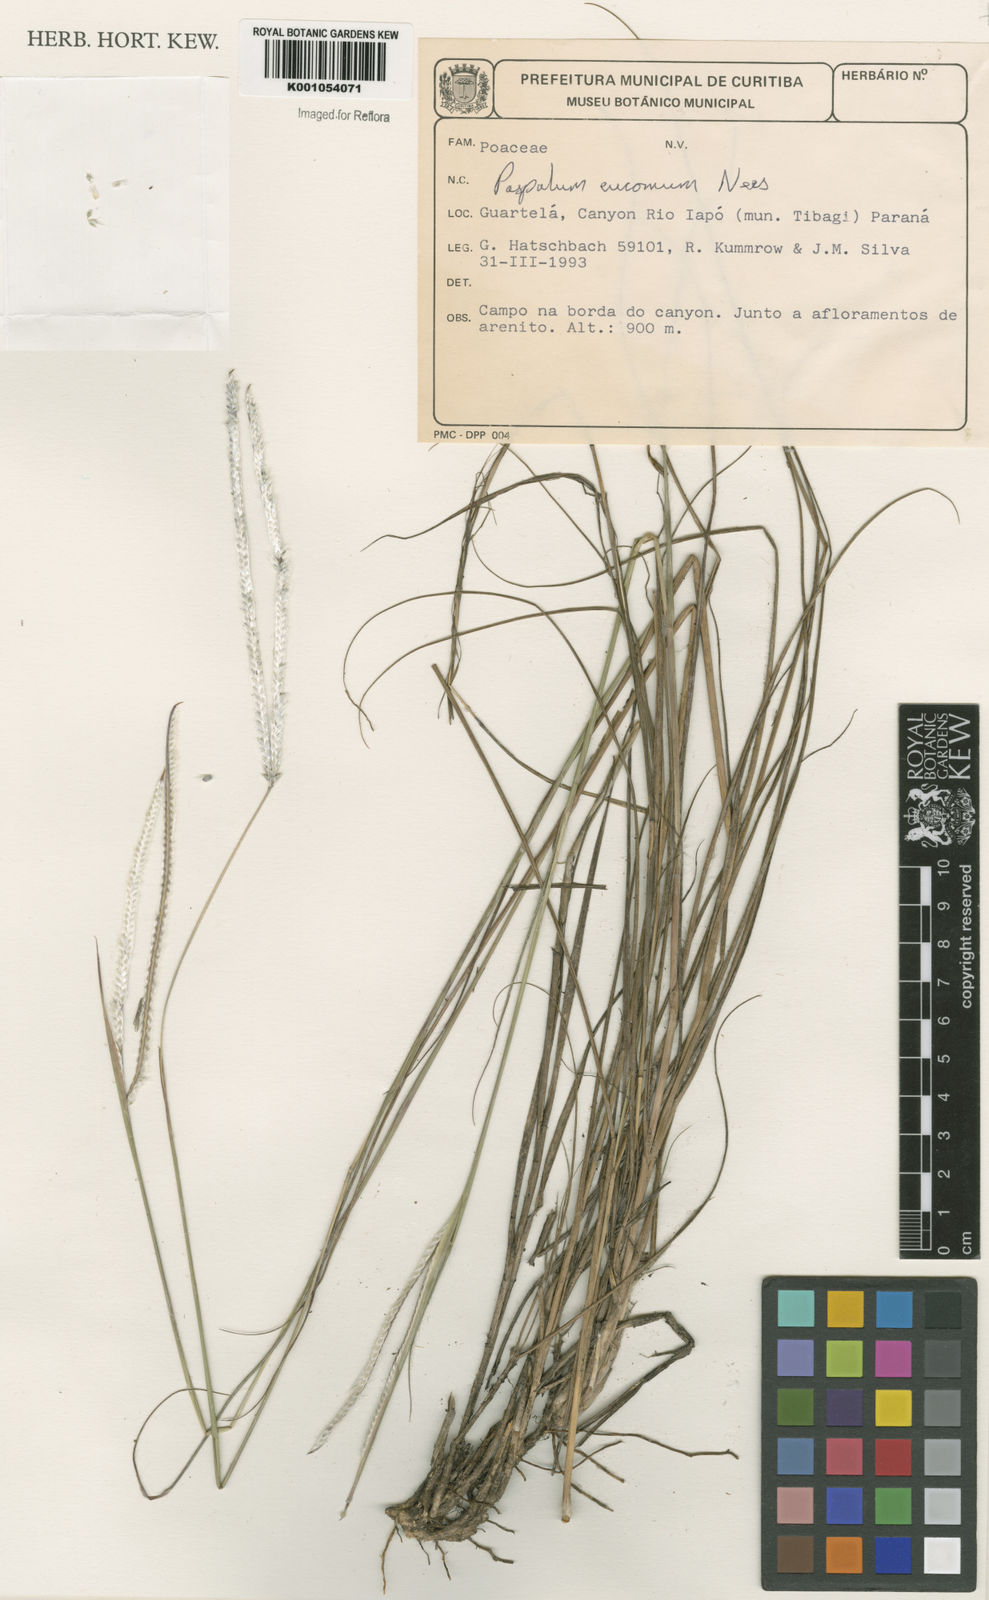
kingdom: Plantae
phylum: Tracheophyta
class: Liliopsida
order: Poales
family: Poaceae
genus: Paspalum
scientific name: Paspalum eucomum
